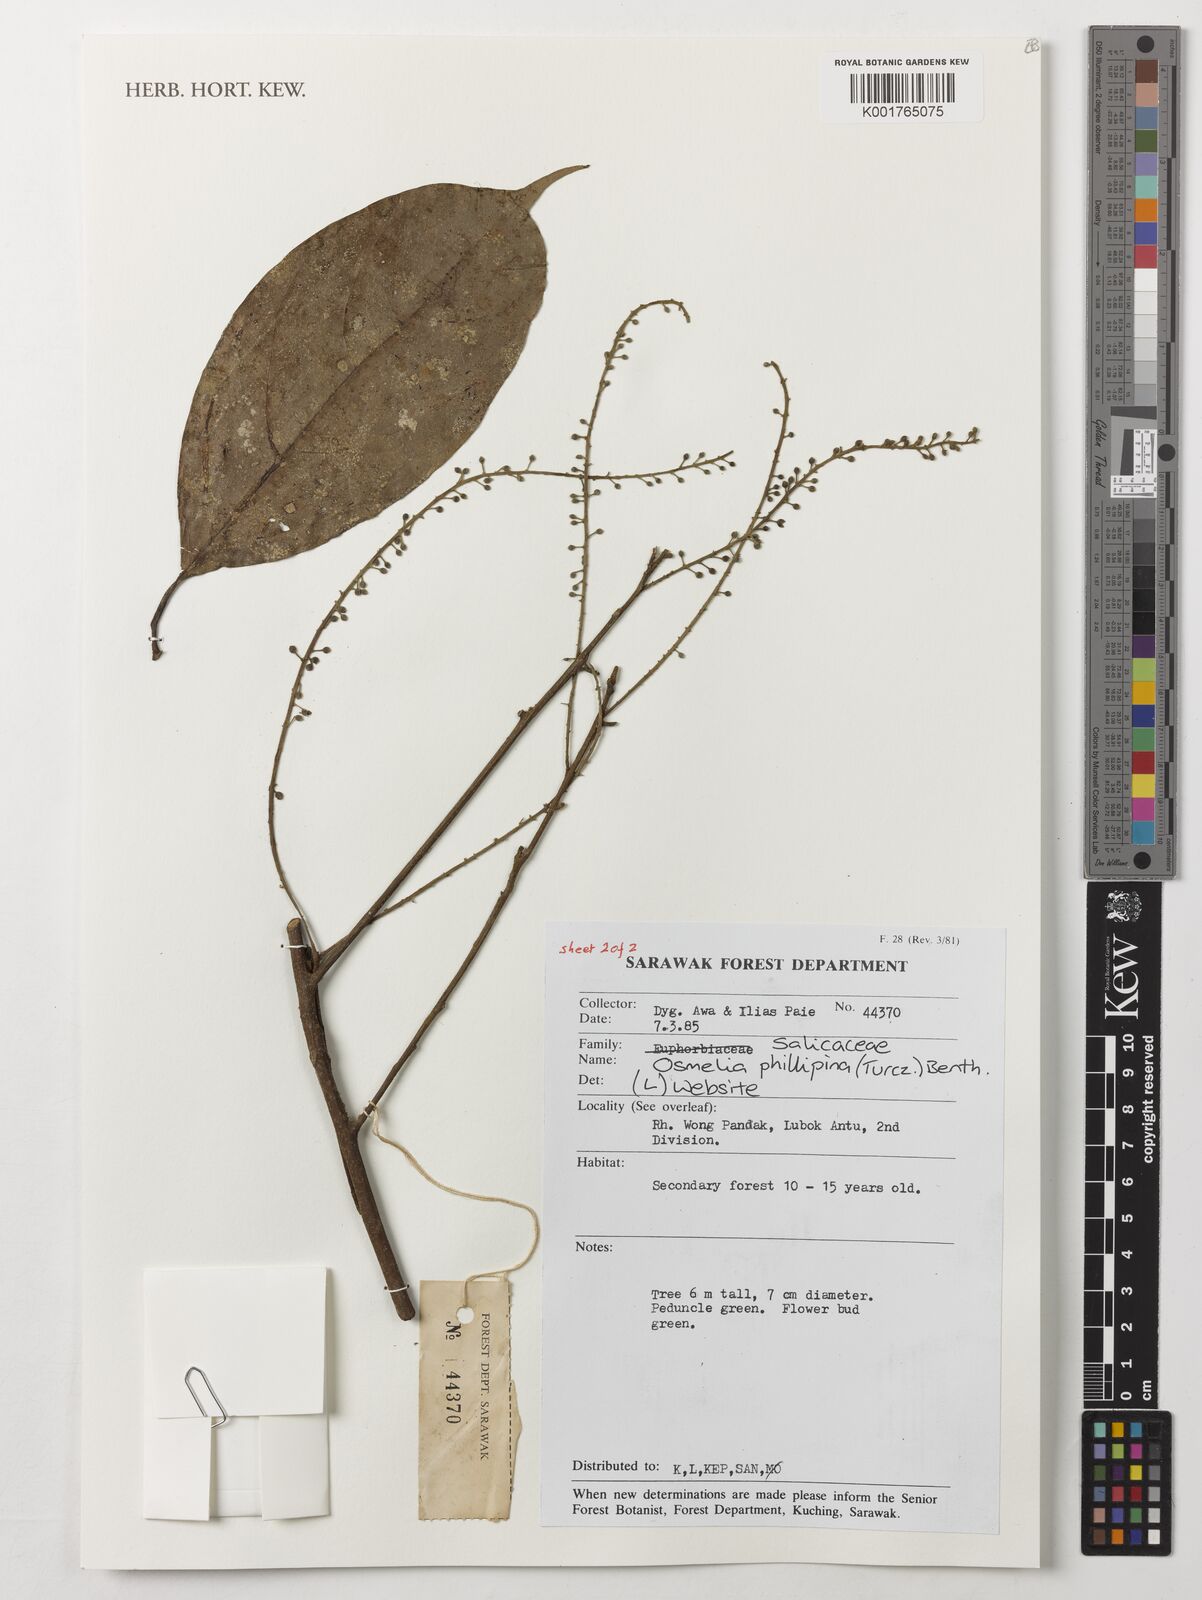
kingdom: Plantae
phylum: Tracheophyta
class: Magnoliopsida
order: Malpighiales
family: Salicaceae
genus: Osmelia
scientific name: Osmelia philippina
